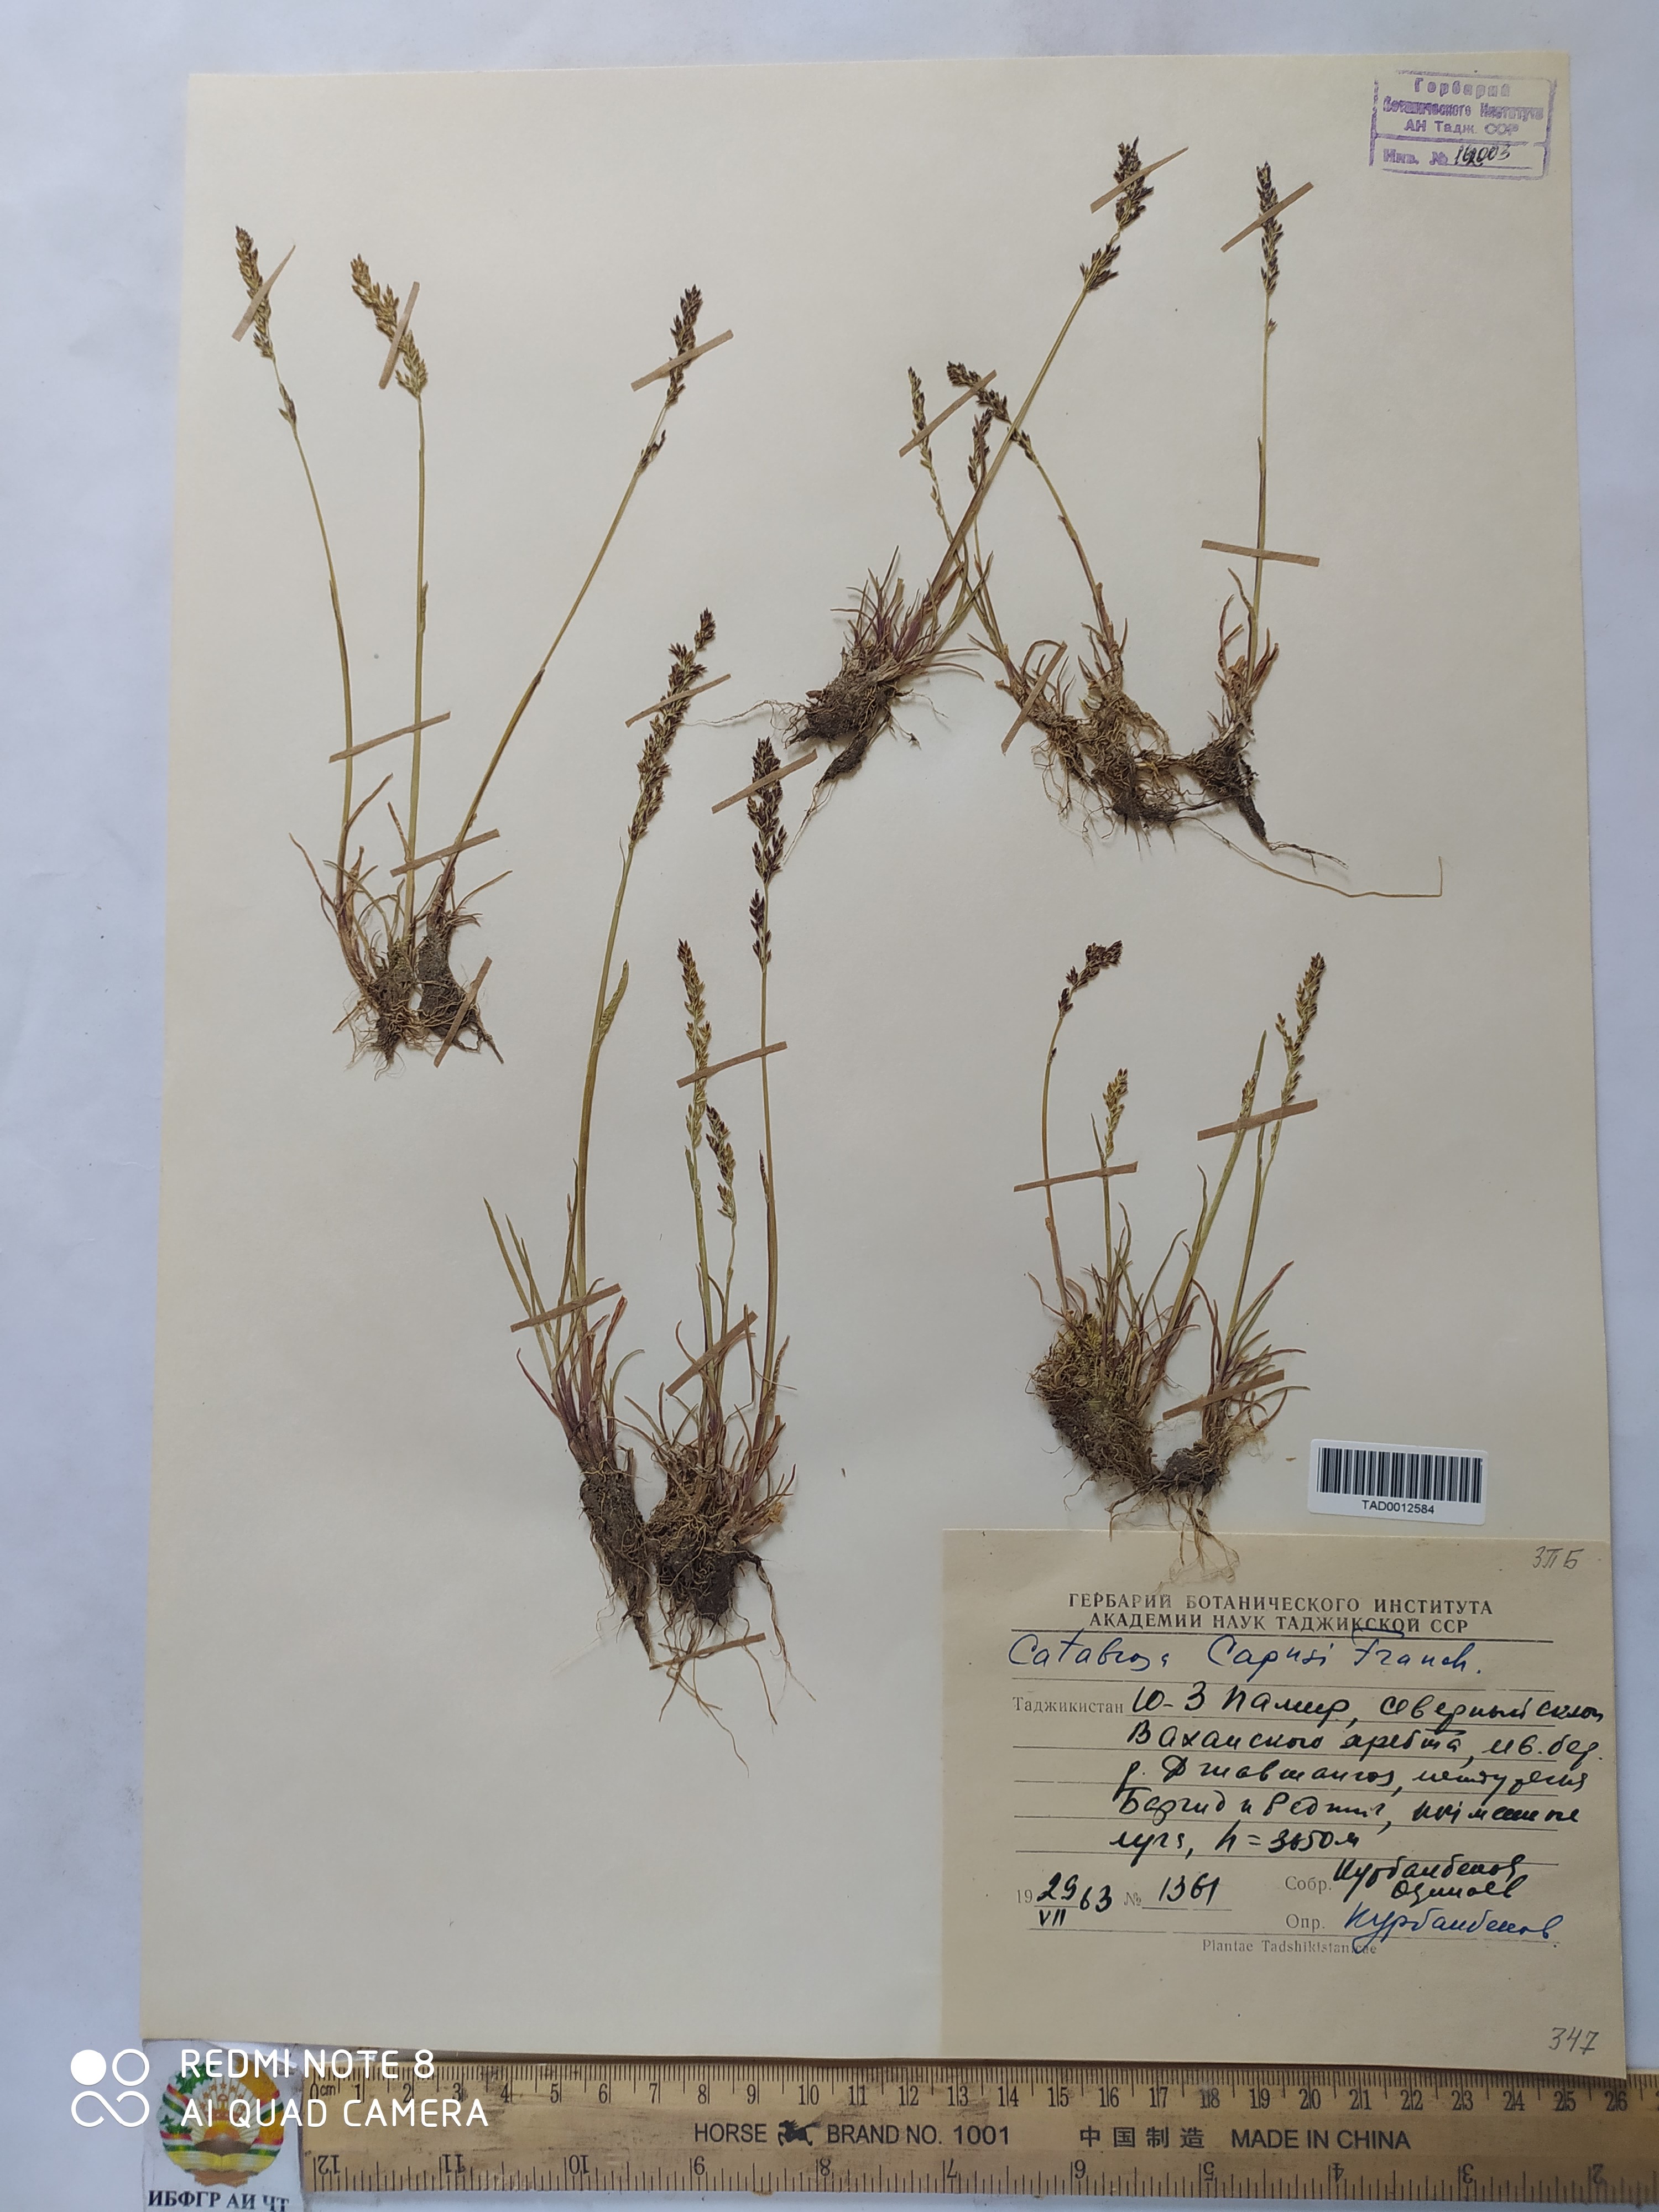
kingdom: Plantae
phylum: Tracheophyta
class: Liliopsida
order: Poales
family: Poaceae
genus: Catabrosa
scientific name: Catabrosa aquatica
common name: Whorl-grass
